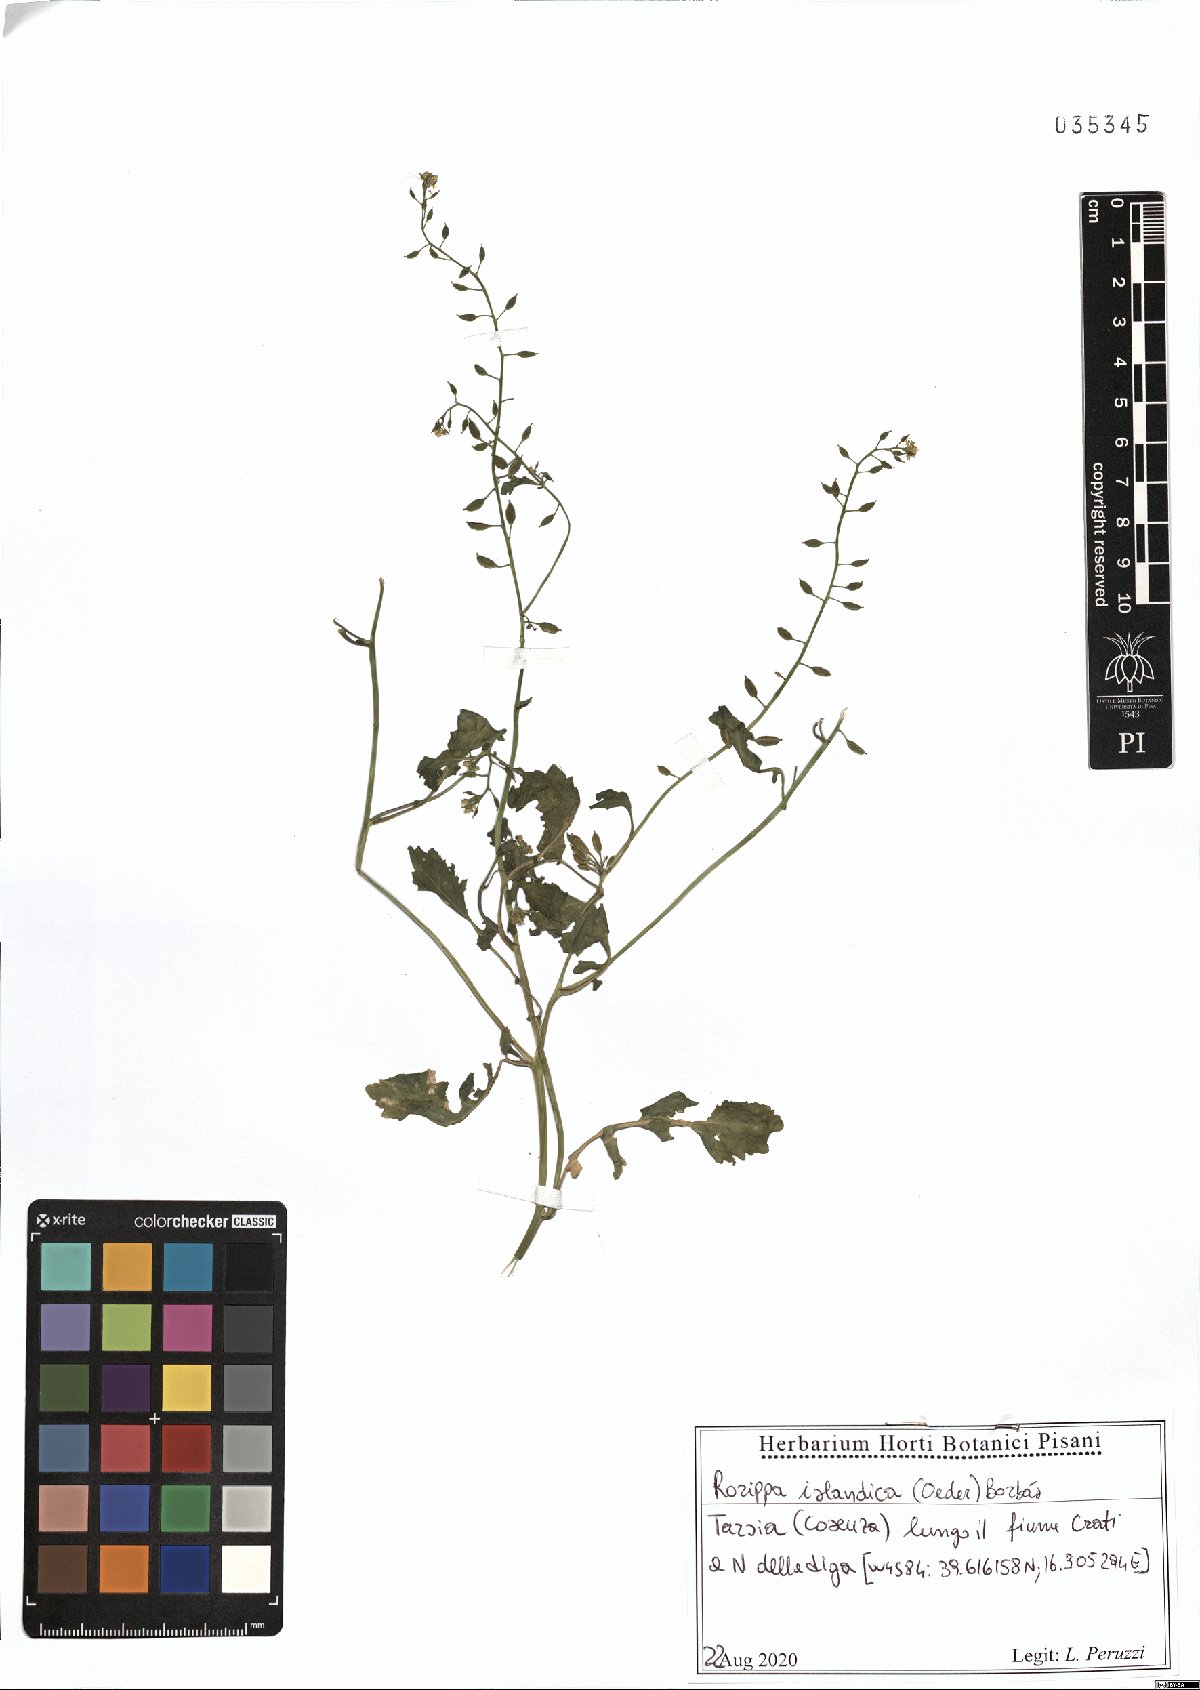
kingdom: Plantae
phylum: Tracheophyta
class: Magnoliopsida
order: Brassicales
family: Brassicaceae
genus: Rorippa
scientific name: Rorippa islandica
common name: Marsh cress
